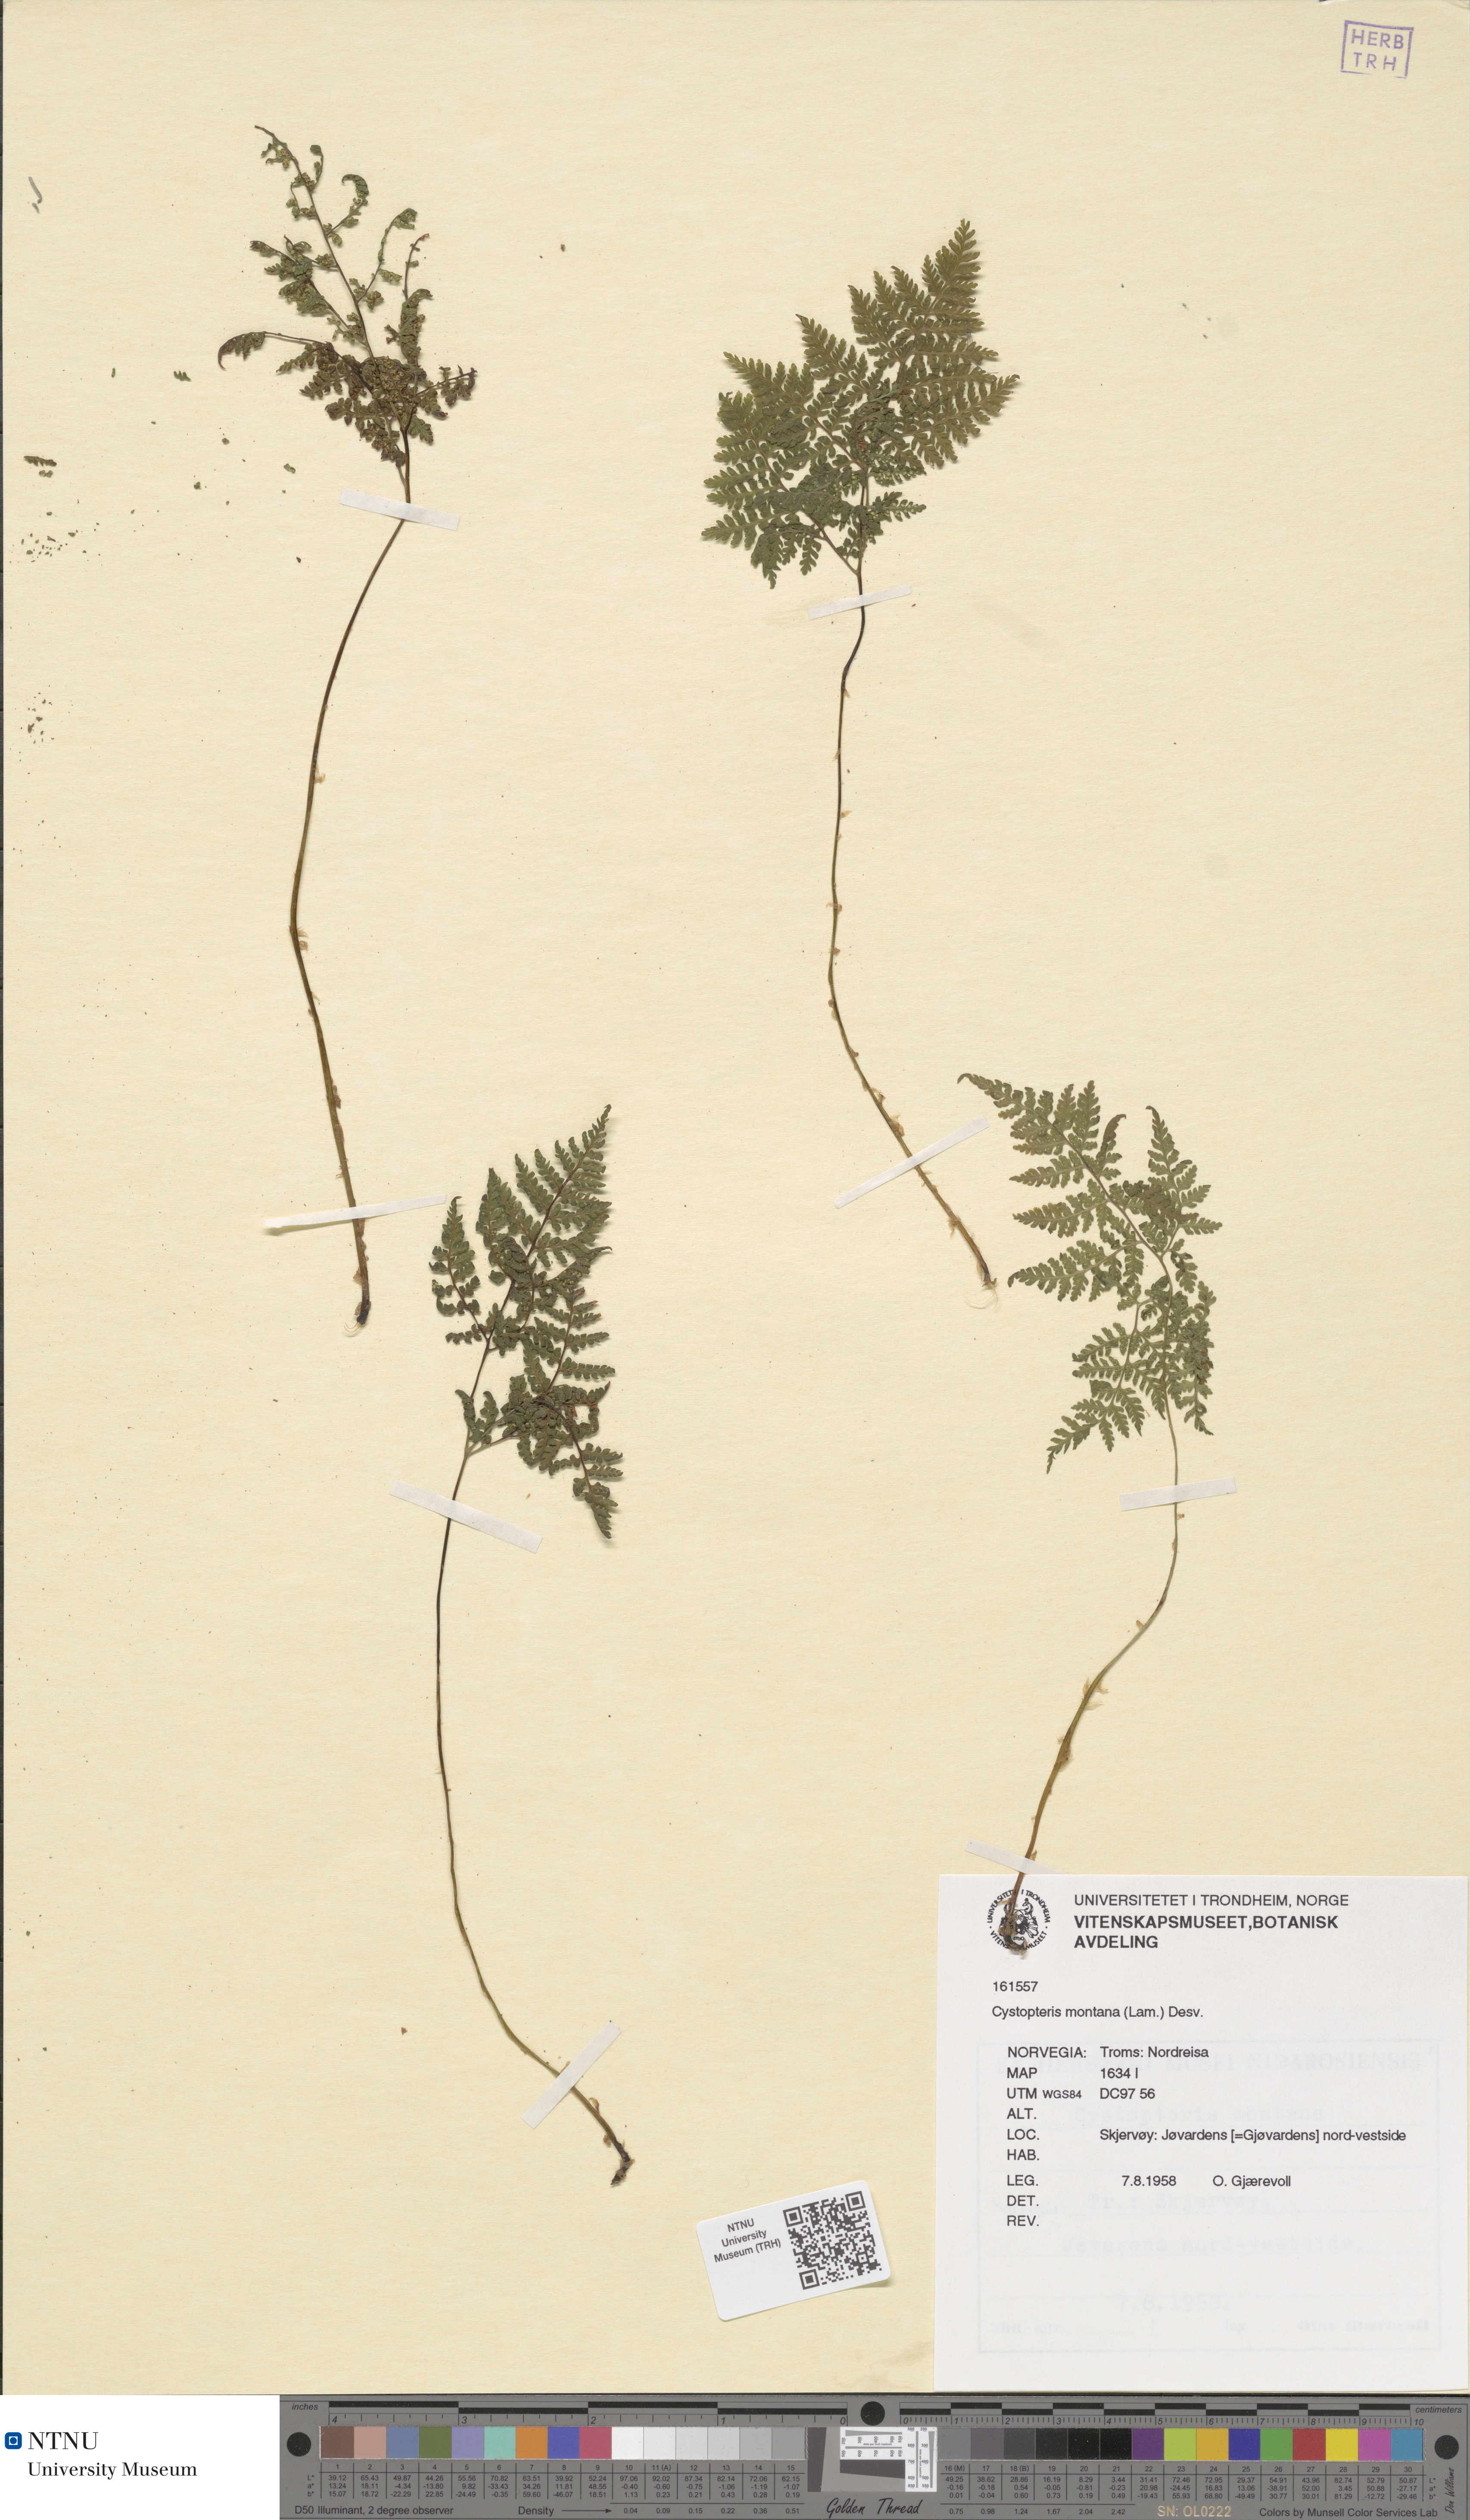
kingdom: Plantae
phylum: Tracheophyta
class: Polypodiopsida
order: Polypodiales
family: Cystopteridaceae
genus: Cystopteris
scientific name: Cystopteris montana
